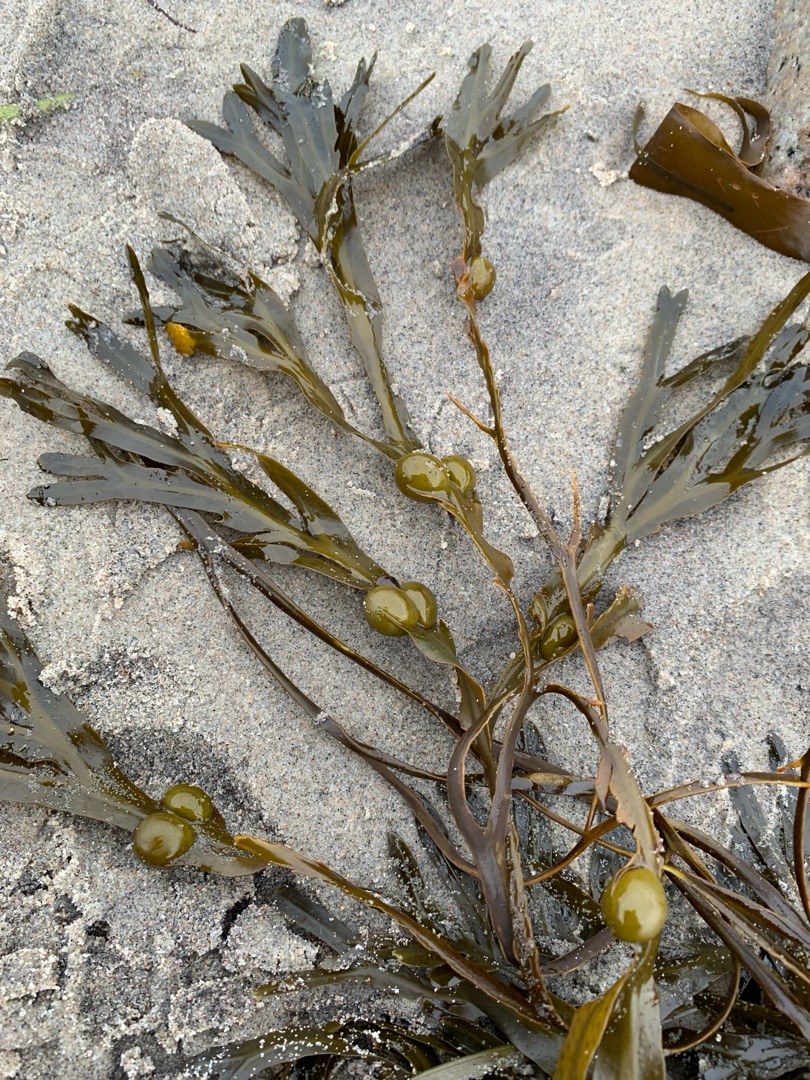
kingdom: Chromista
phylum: Ochrophyta
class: Phaeophyceae
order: Fucales
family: Fucaceae
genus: Fucus
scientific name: Fucus vesiculosus
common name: Blæretang
